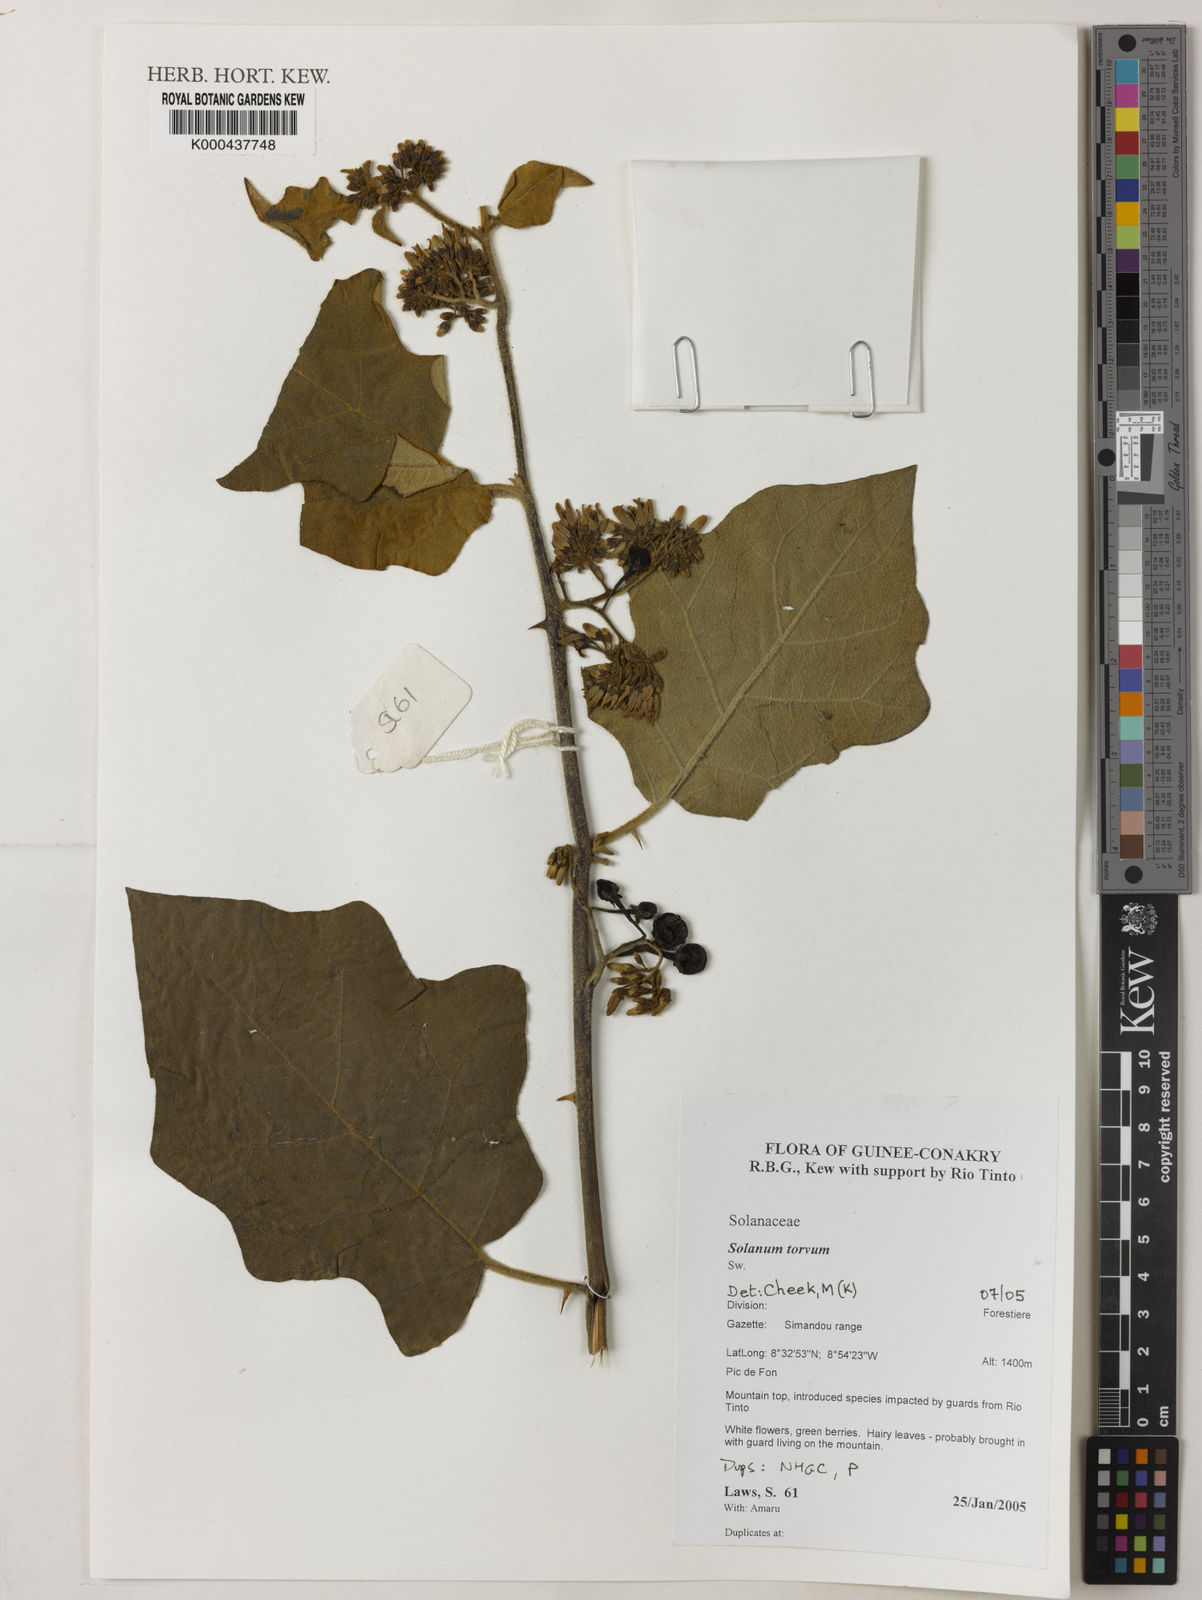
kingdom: Plantae
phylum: Tracheophyta
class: Magnoliopsida
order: Solanales
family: Solanaceae
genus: Solanum
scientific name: Solanum torvum
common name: Turkey berry
